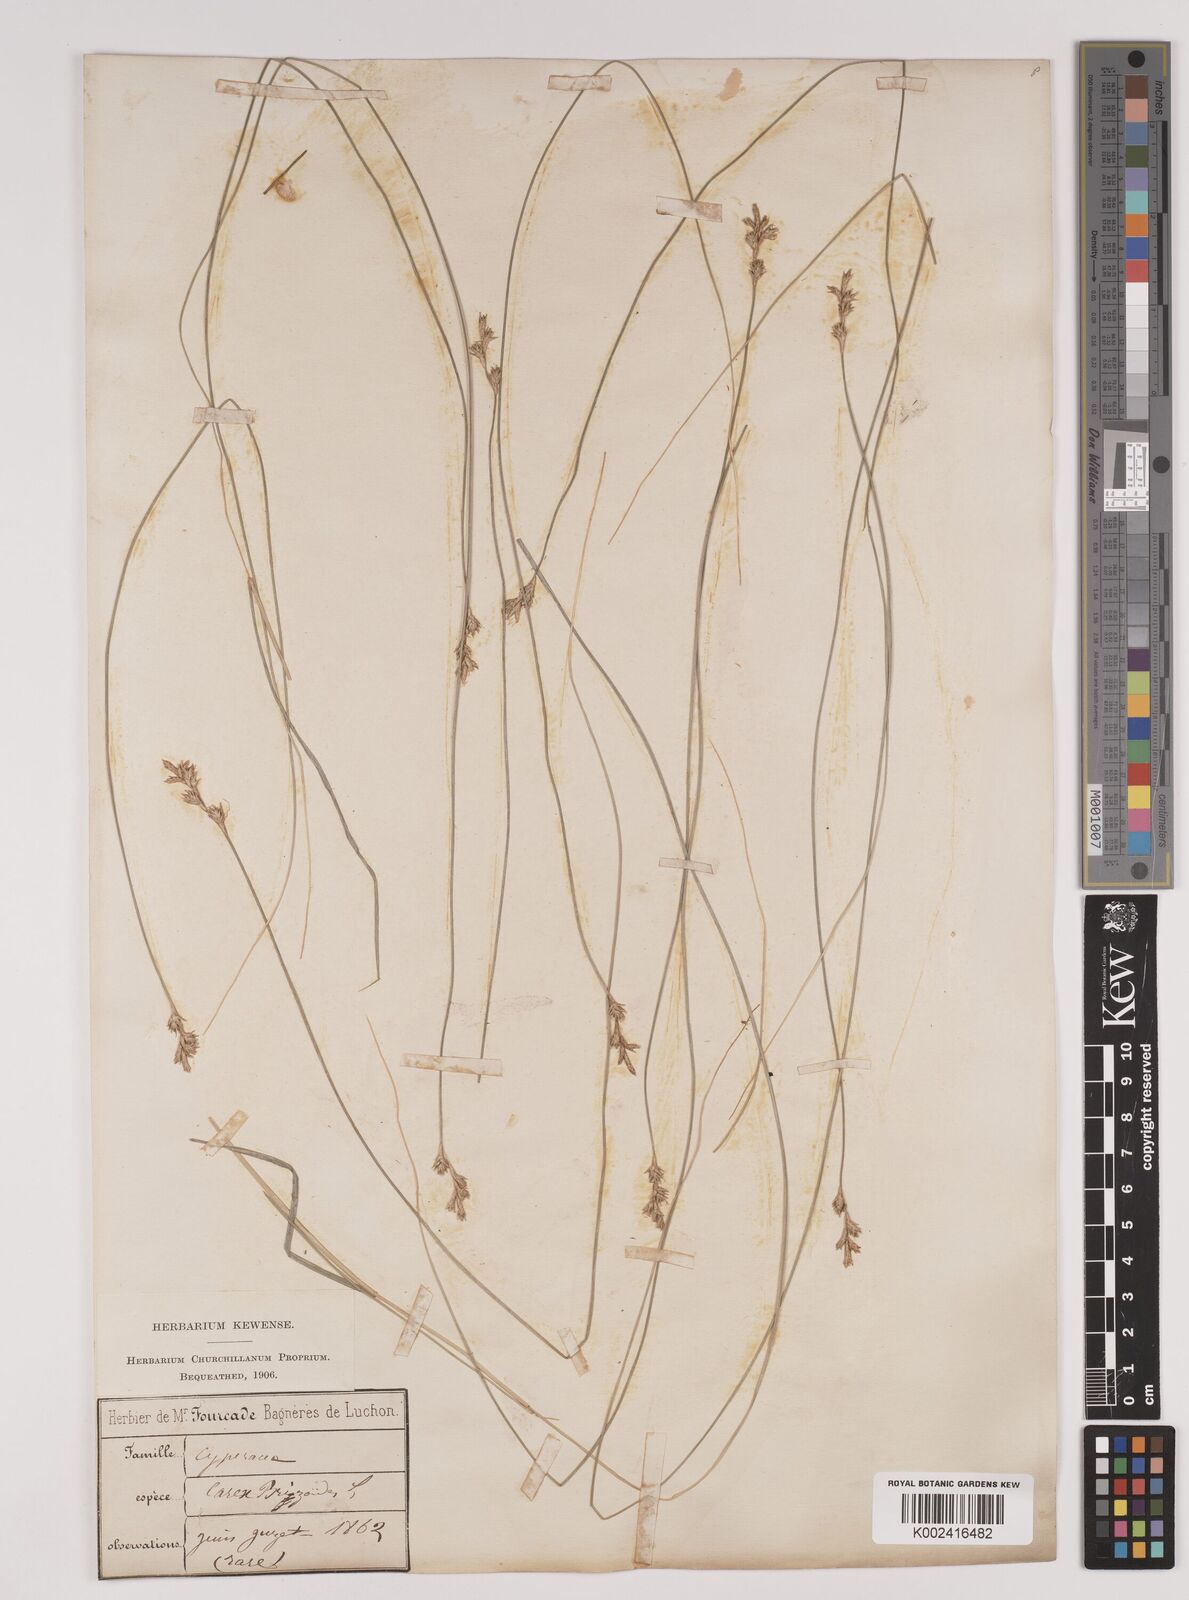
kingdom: Plantae
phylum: Tracheophyta
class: Liliopsida
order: Poales
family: Cyperaceae
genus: Carex
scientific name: Carex brizoides
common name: Quaking-grass sedge
